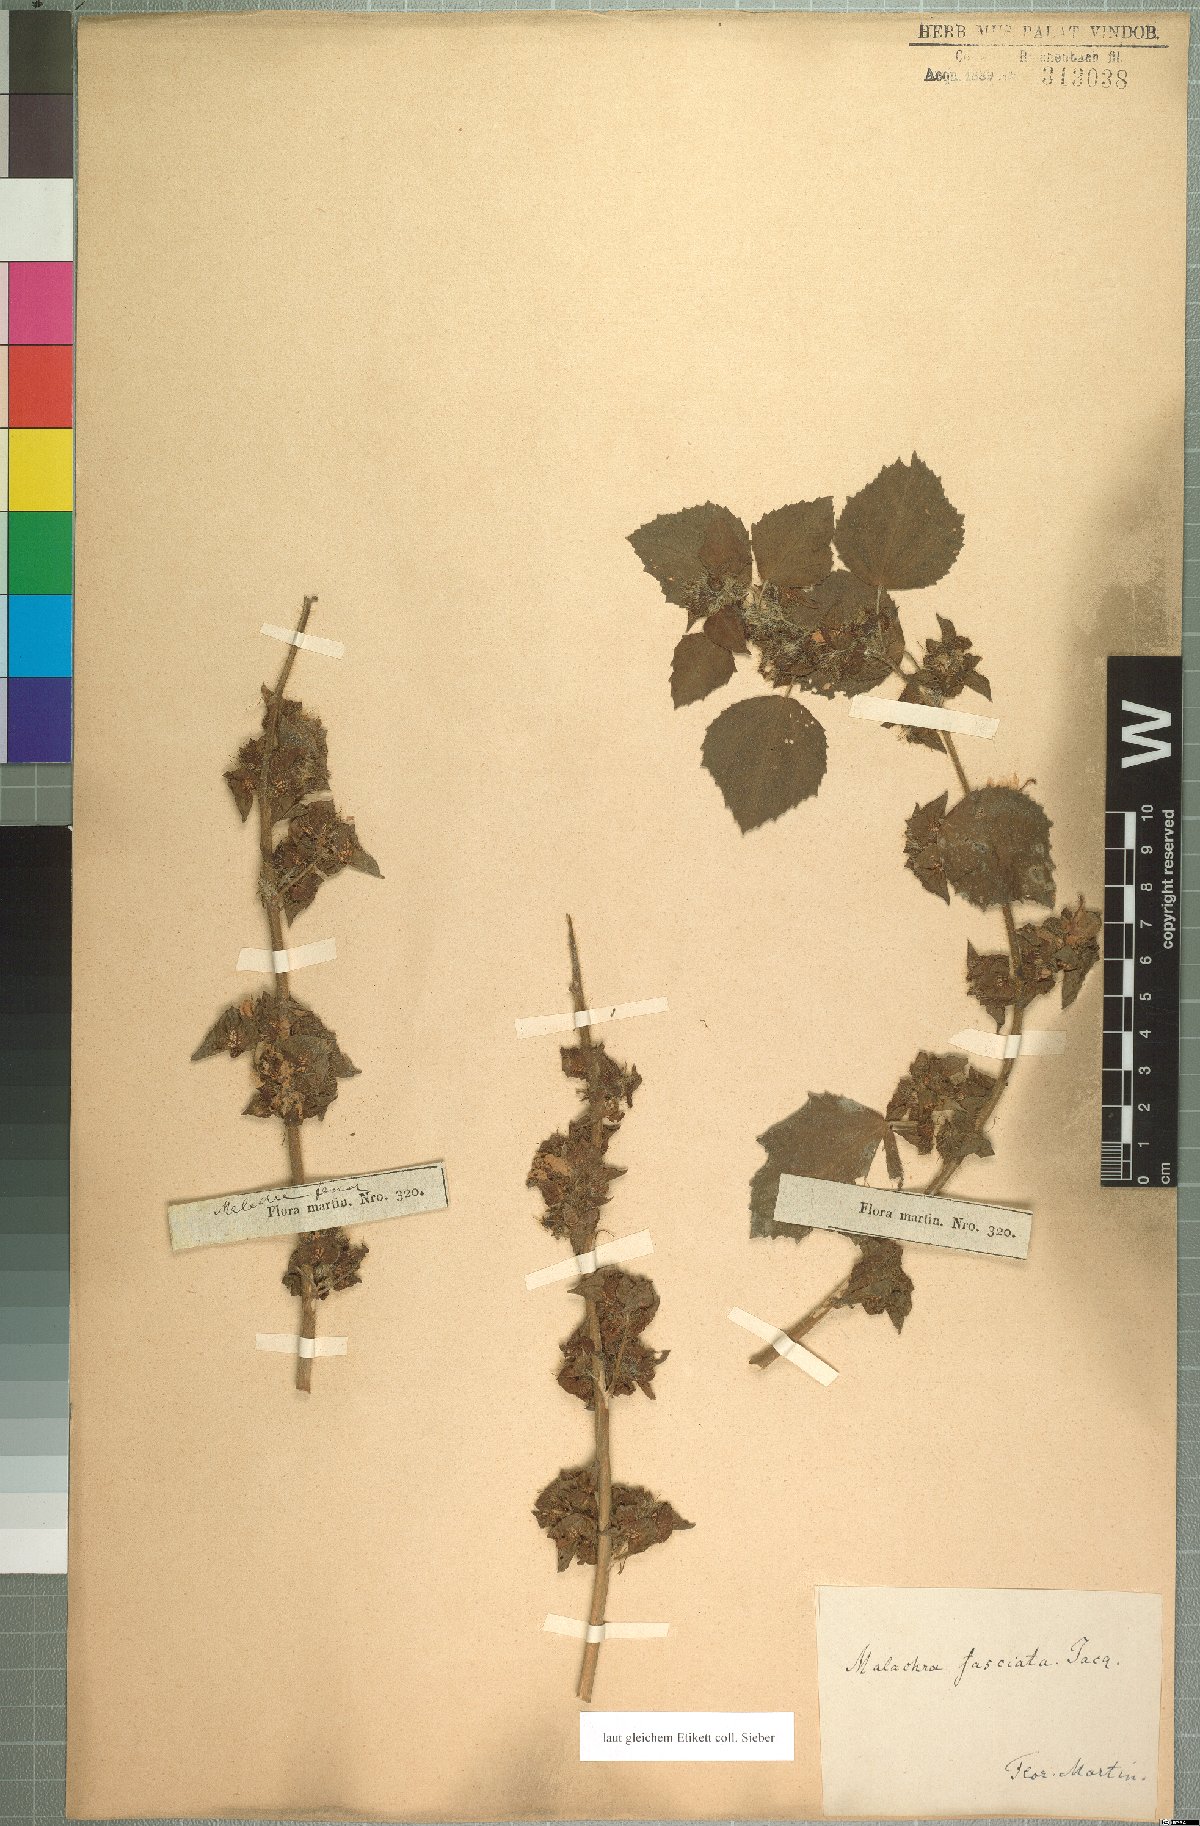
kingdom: Plantae
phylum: Tracheophyta
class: Magnoliopsida
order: Malvales
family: Malvaceae
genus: Malachra
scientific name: Malachra fasciata
